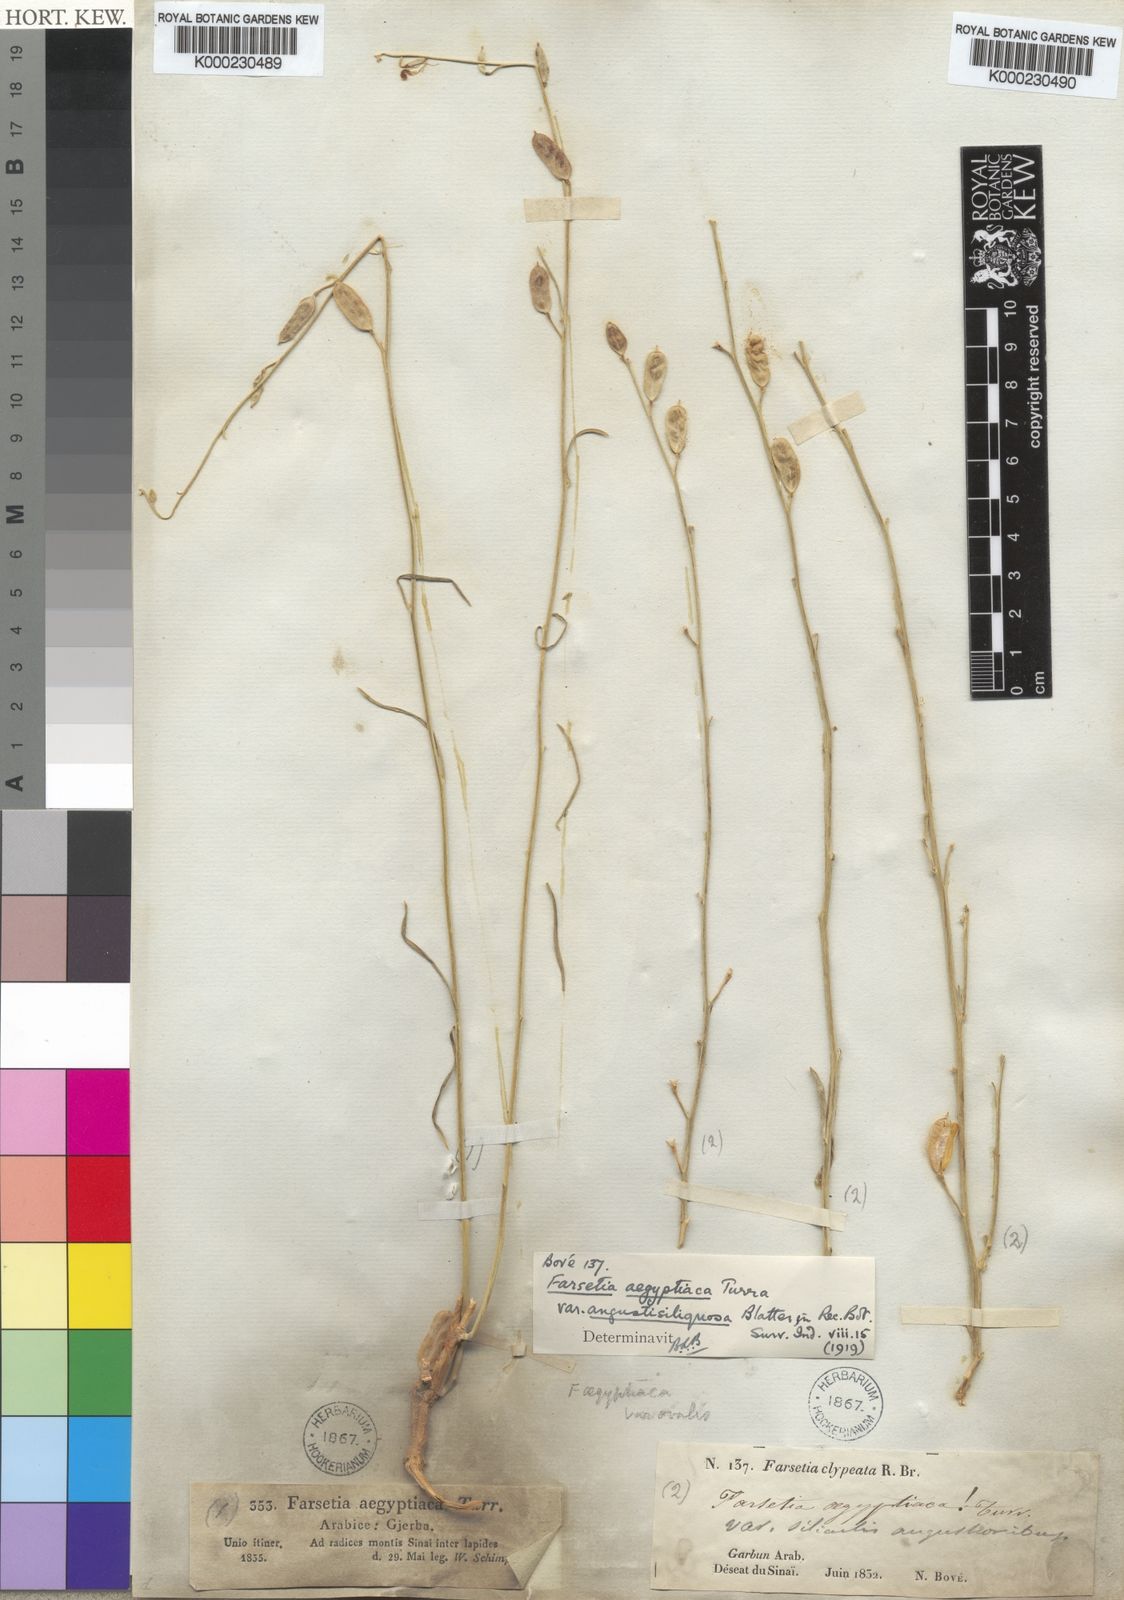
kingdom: Plantae
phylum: Tracheophyta
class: Magnoliopsida
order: Brassicales
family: Brassicaceae
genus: Farsetia
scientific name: Farsetia aegyptia
